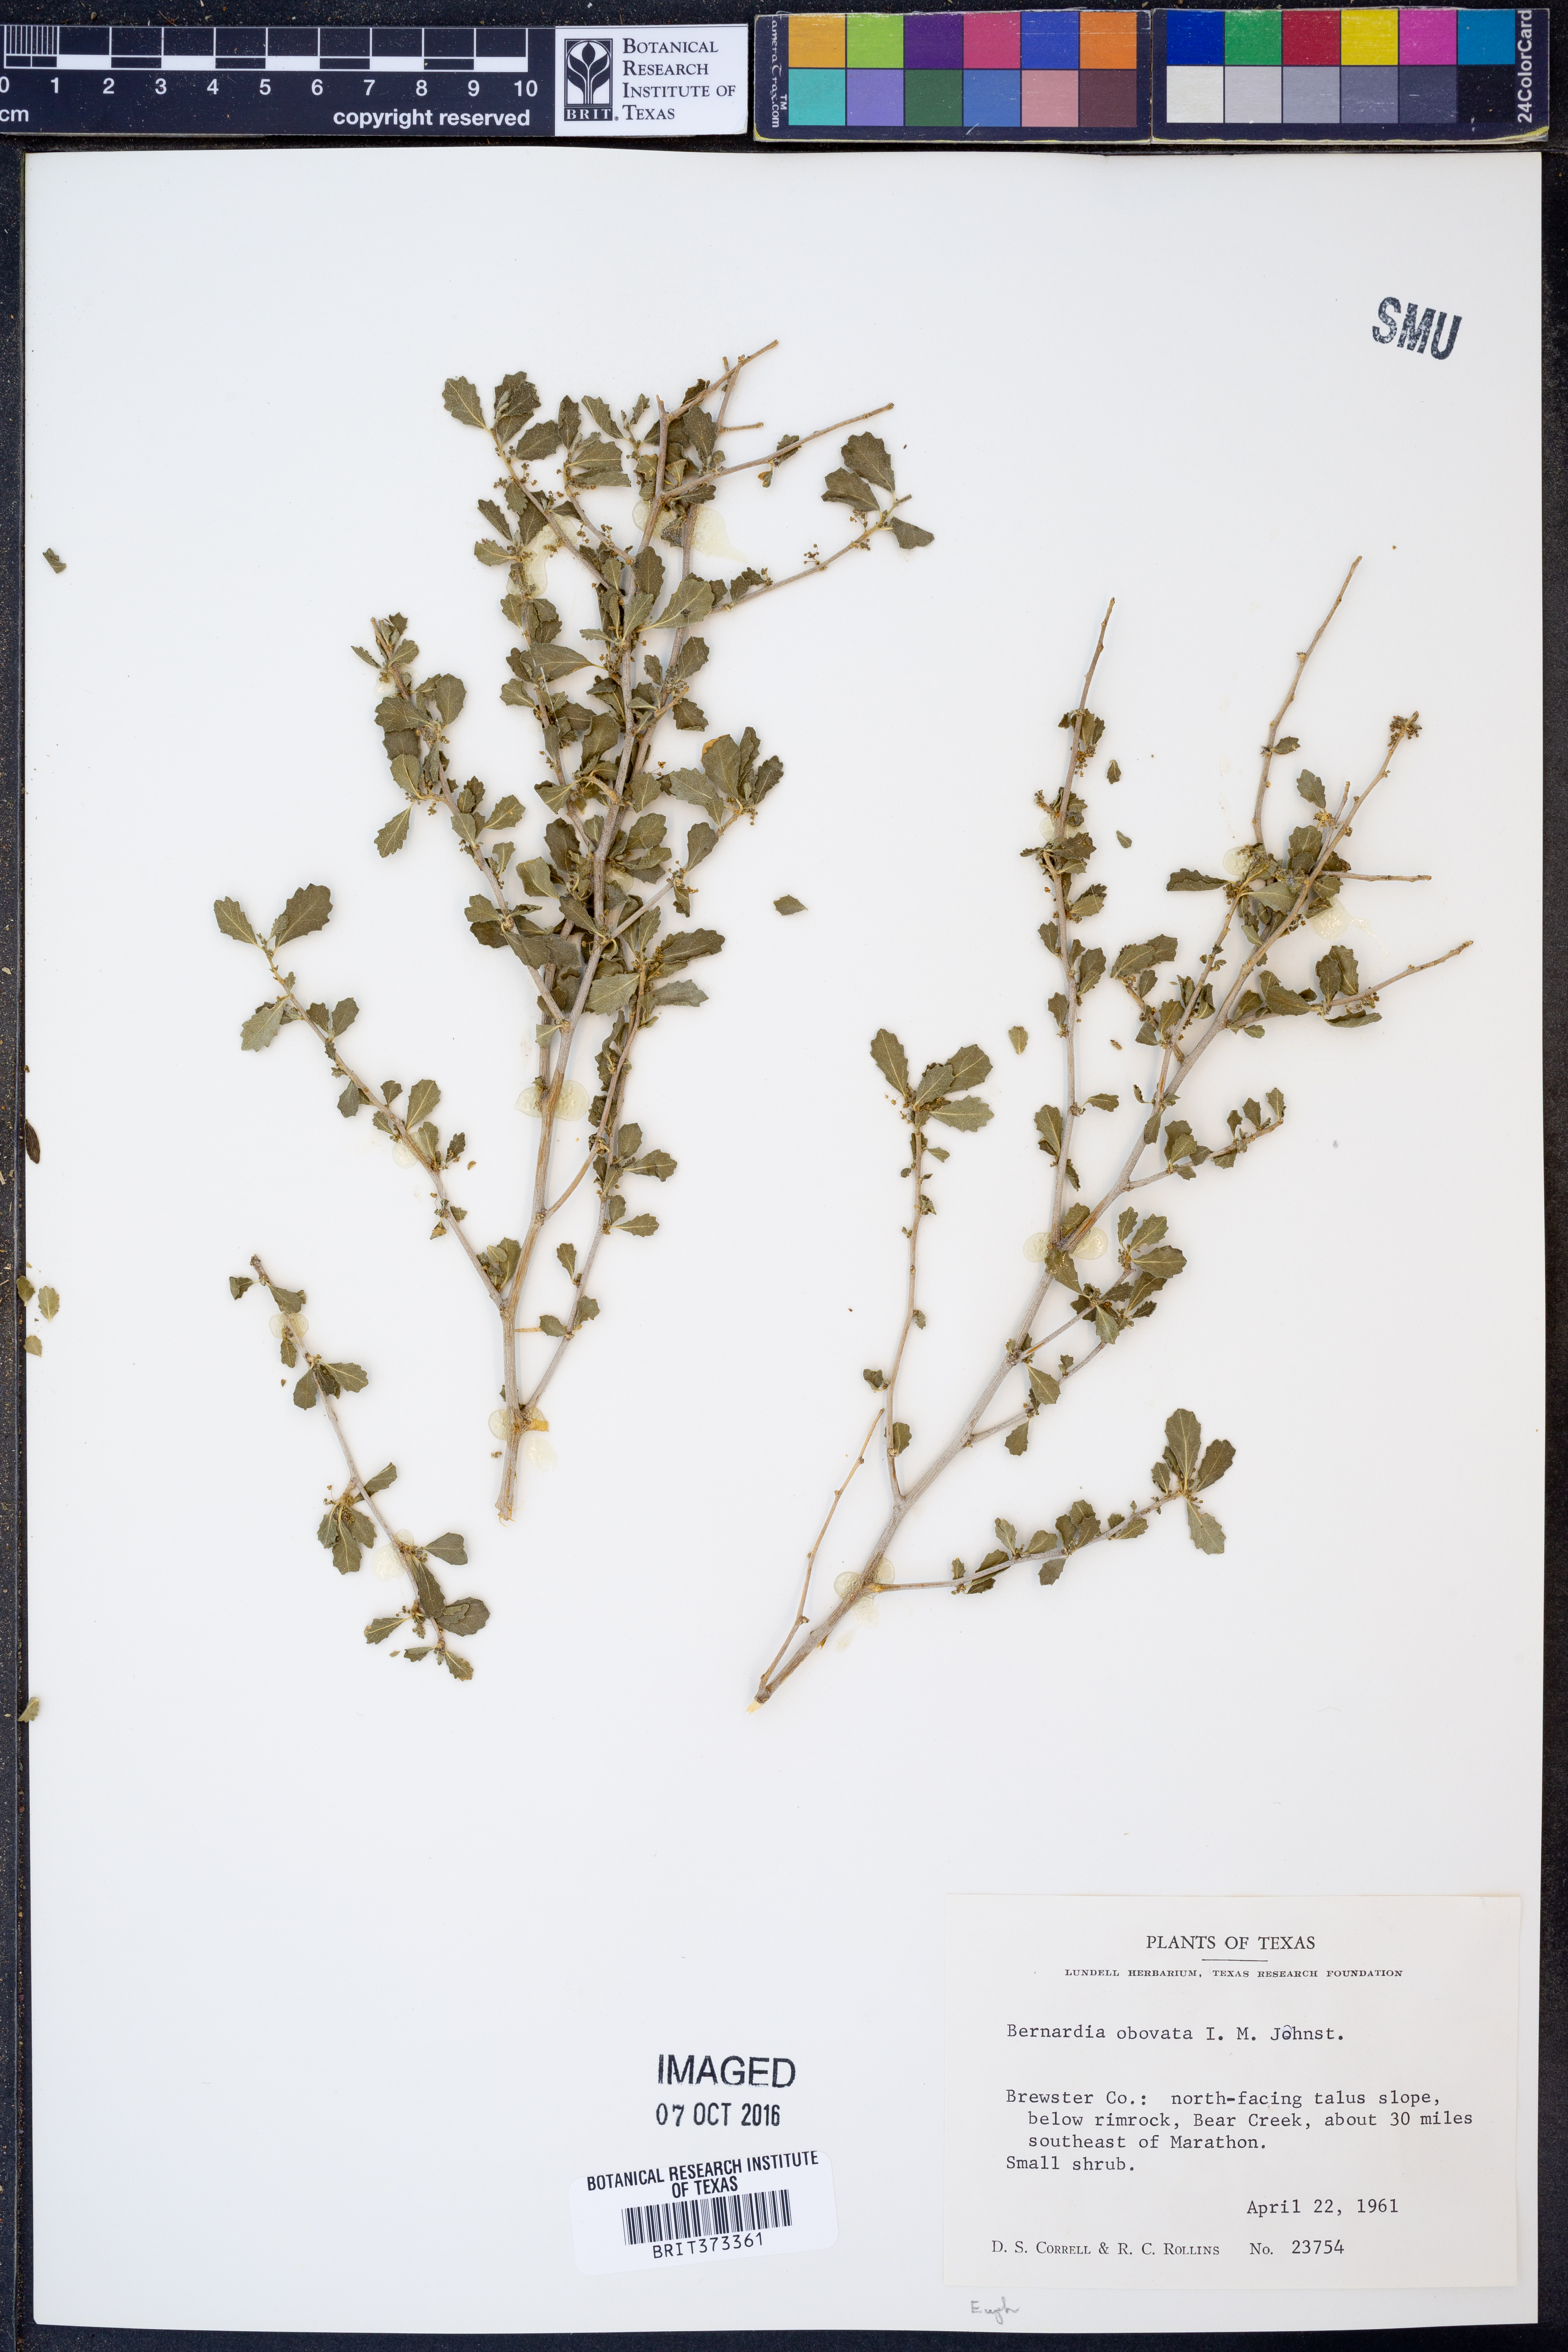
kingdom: Plantae
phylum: Tracheophyta
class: Magnoliopsida
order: Malpighiales
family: Euphorbiaceae
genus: Bernardia
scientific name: Bernardia obovata
